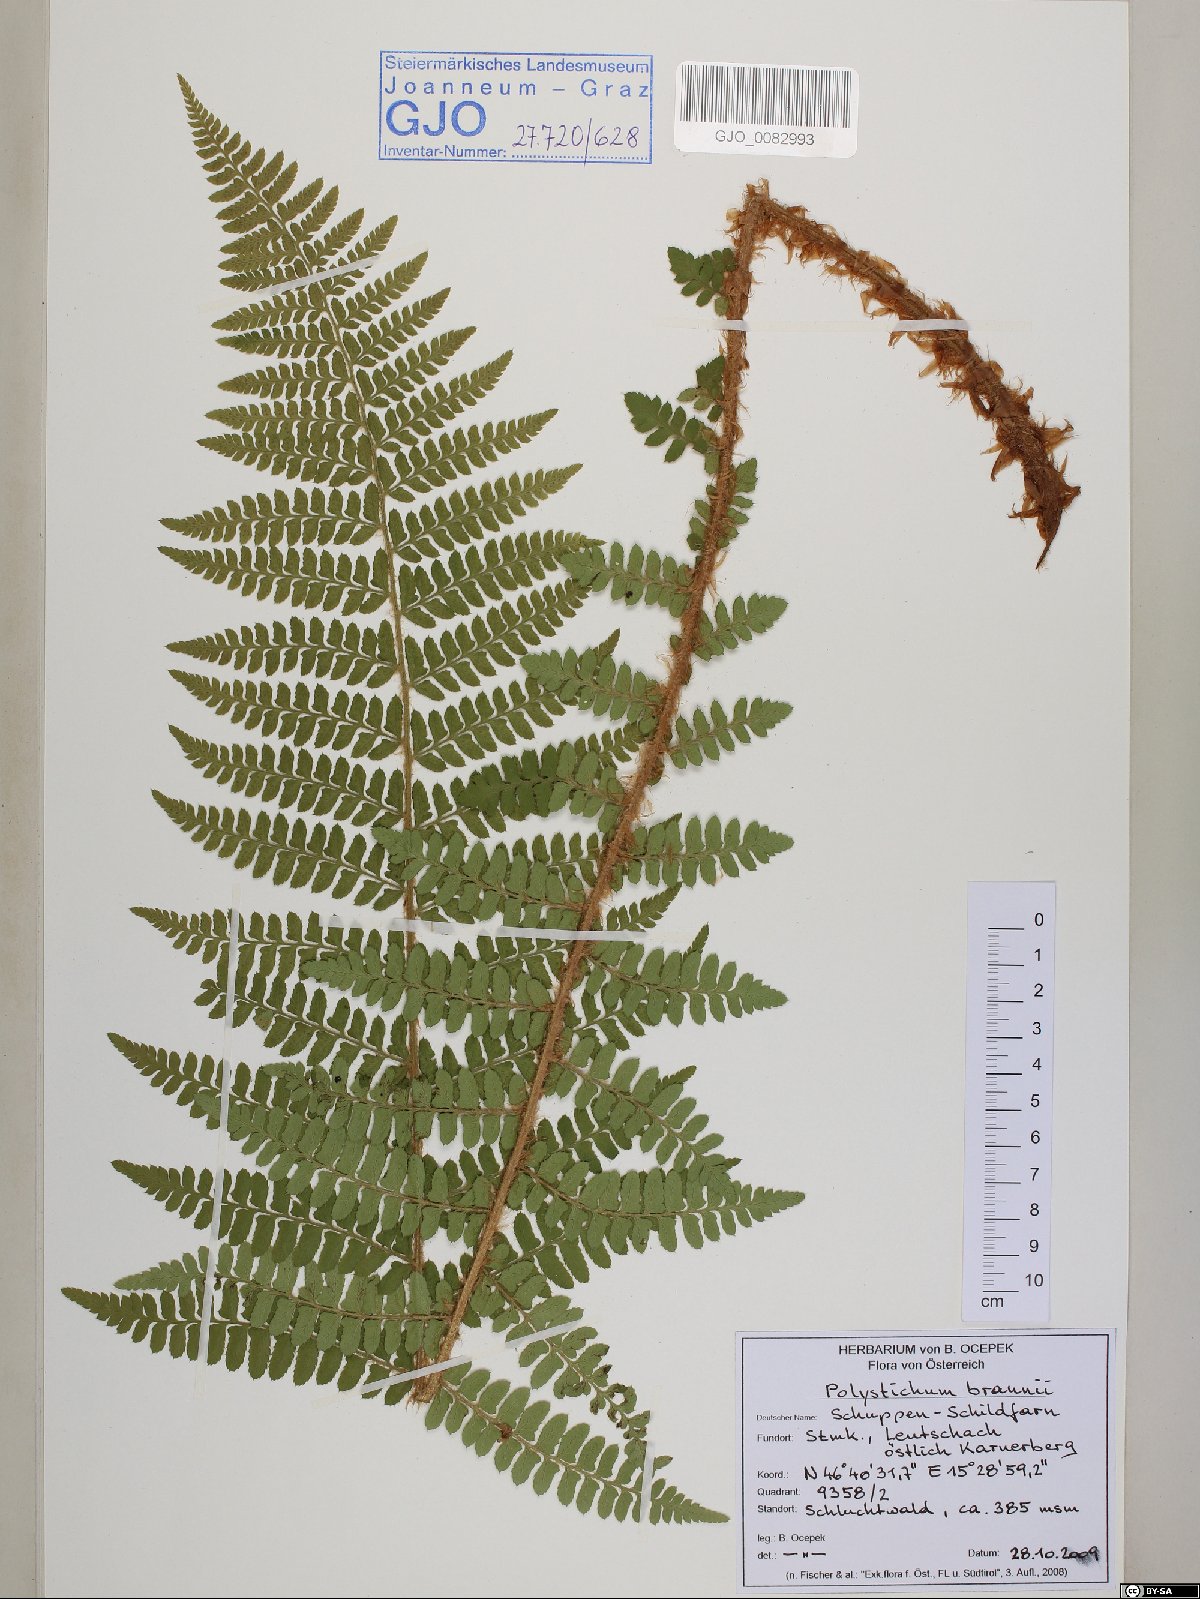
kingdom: Plantae
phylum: Tracheophyta
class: Polypodiopsida
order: Polypodiales
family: Dryopteridaceae
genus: Polystichum
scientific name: Polystichum braunii
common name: Braun's holly fern
